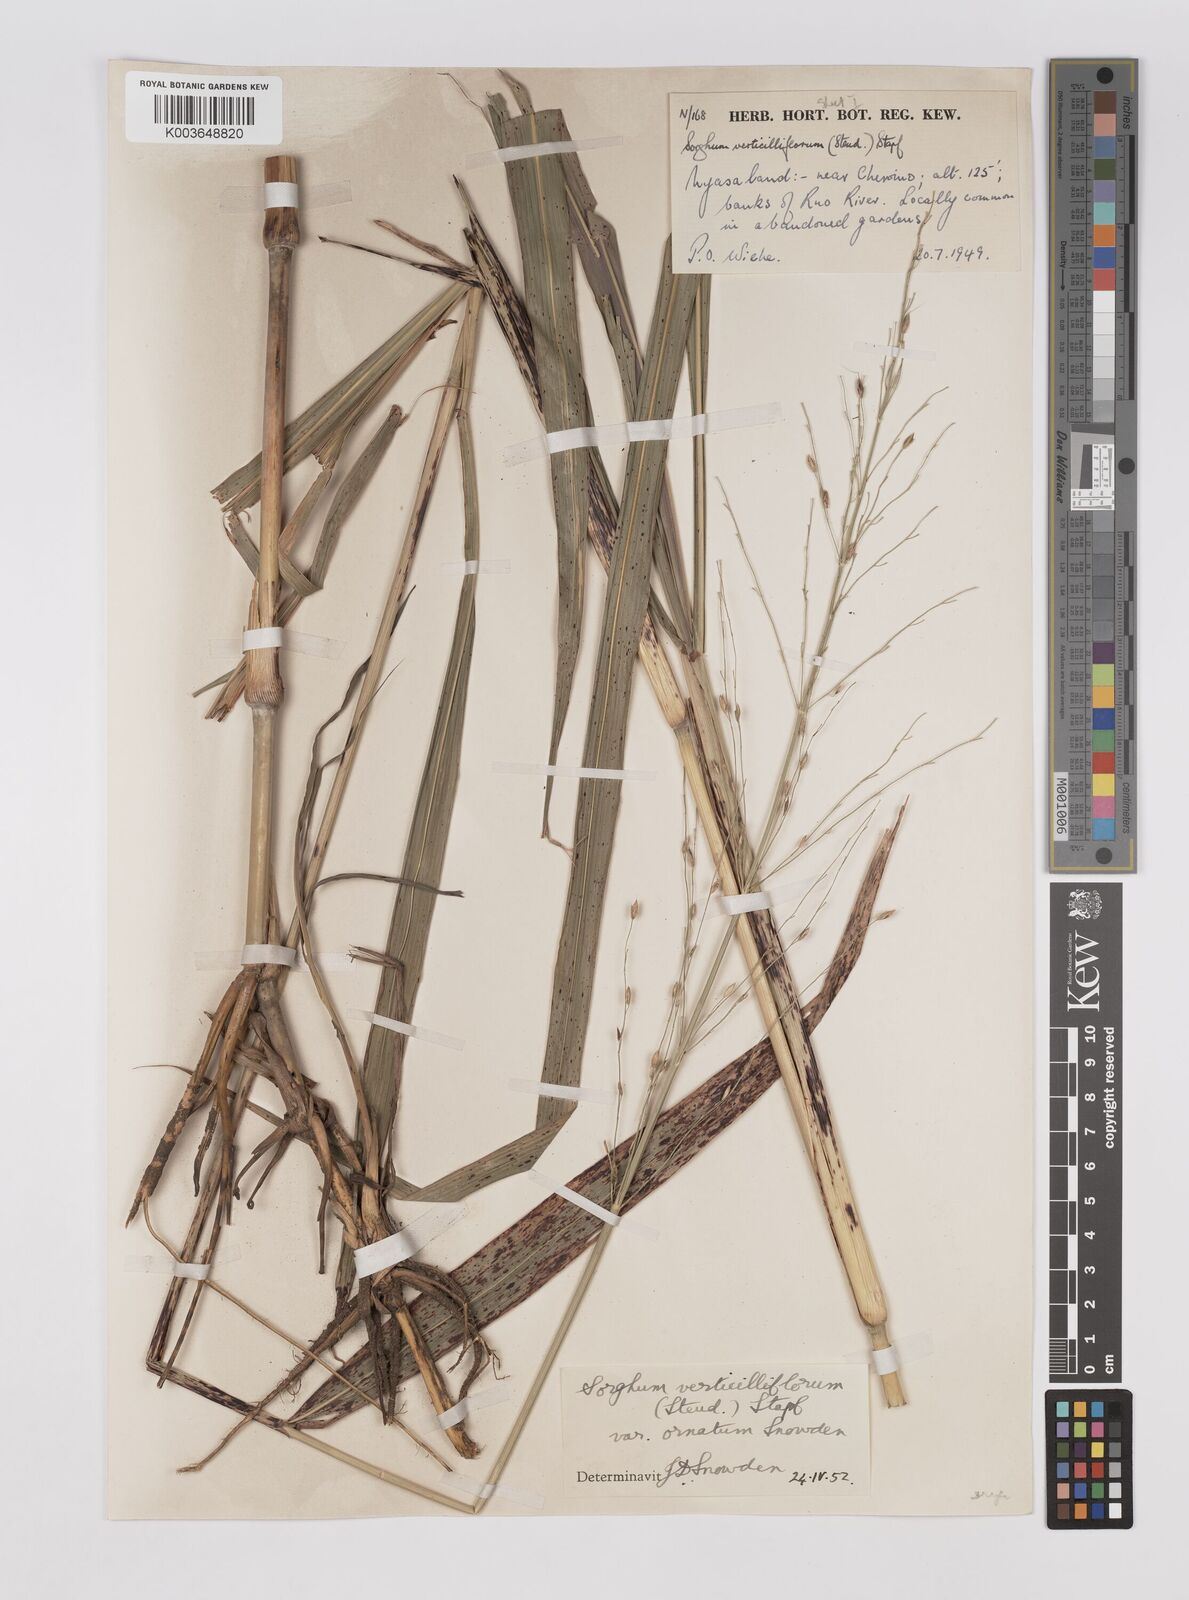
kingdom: Plantae
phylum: Tracheophyta
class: Liliopsida
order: Poales
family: Poaceae
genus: Sorghum
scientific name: Sorghum arundinaceum
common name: Sorghum
